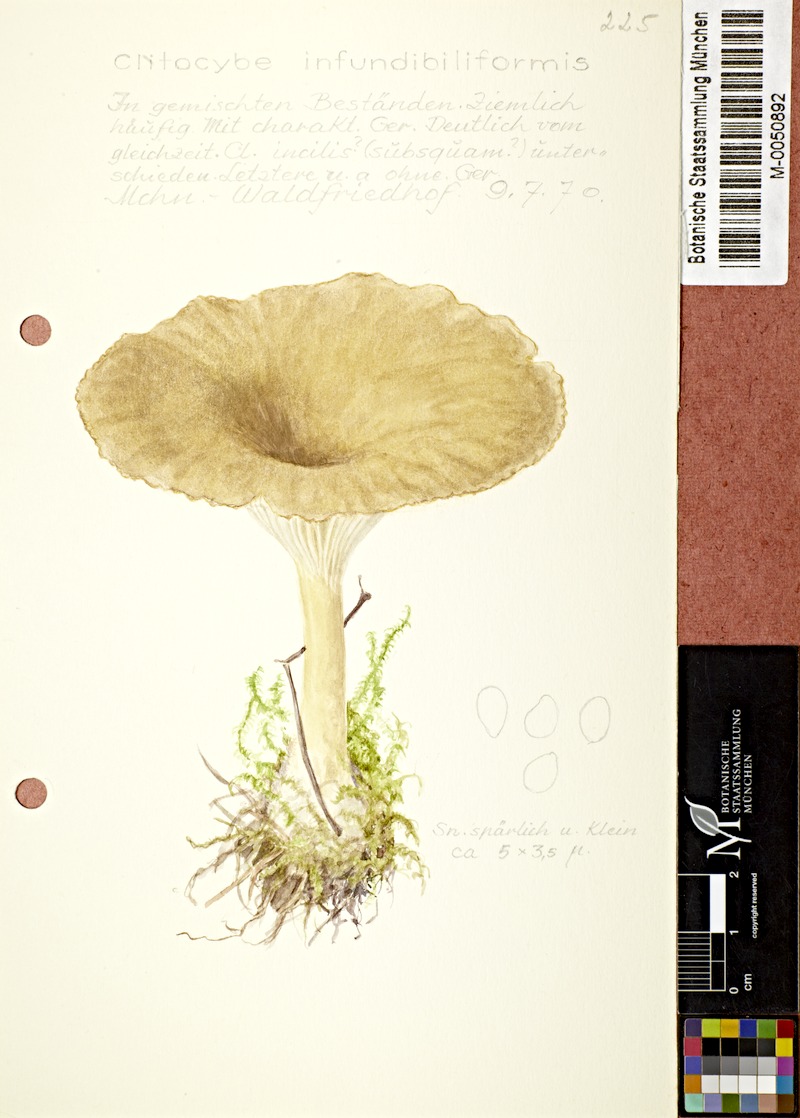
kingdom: Fungi
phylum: Basidiomycota
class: Agaricomycetes
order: Agaricales
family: Tricholomataceae
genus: Infundibulicybe
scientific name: Infundibulicybe gibba
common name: Common funnel
